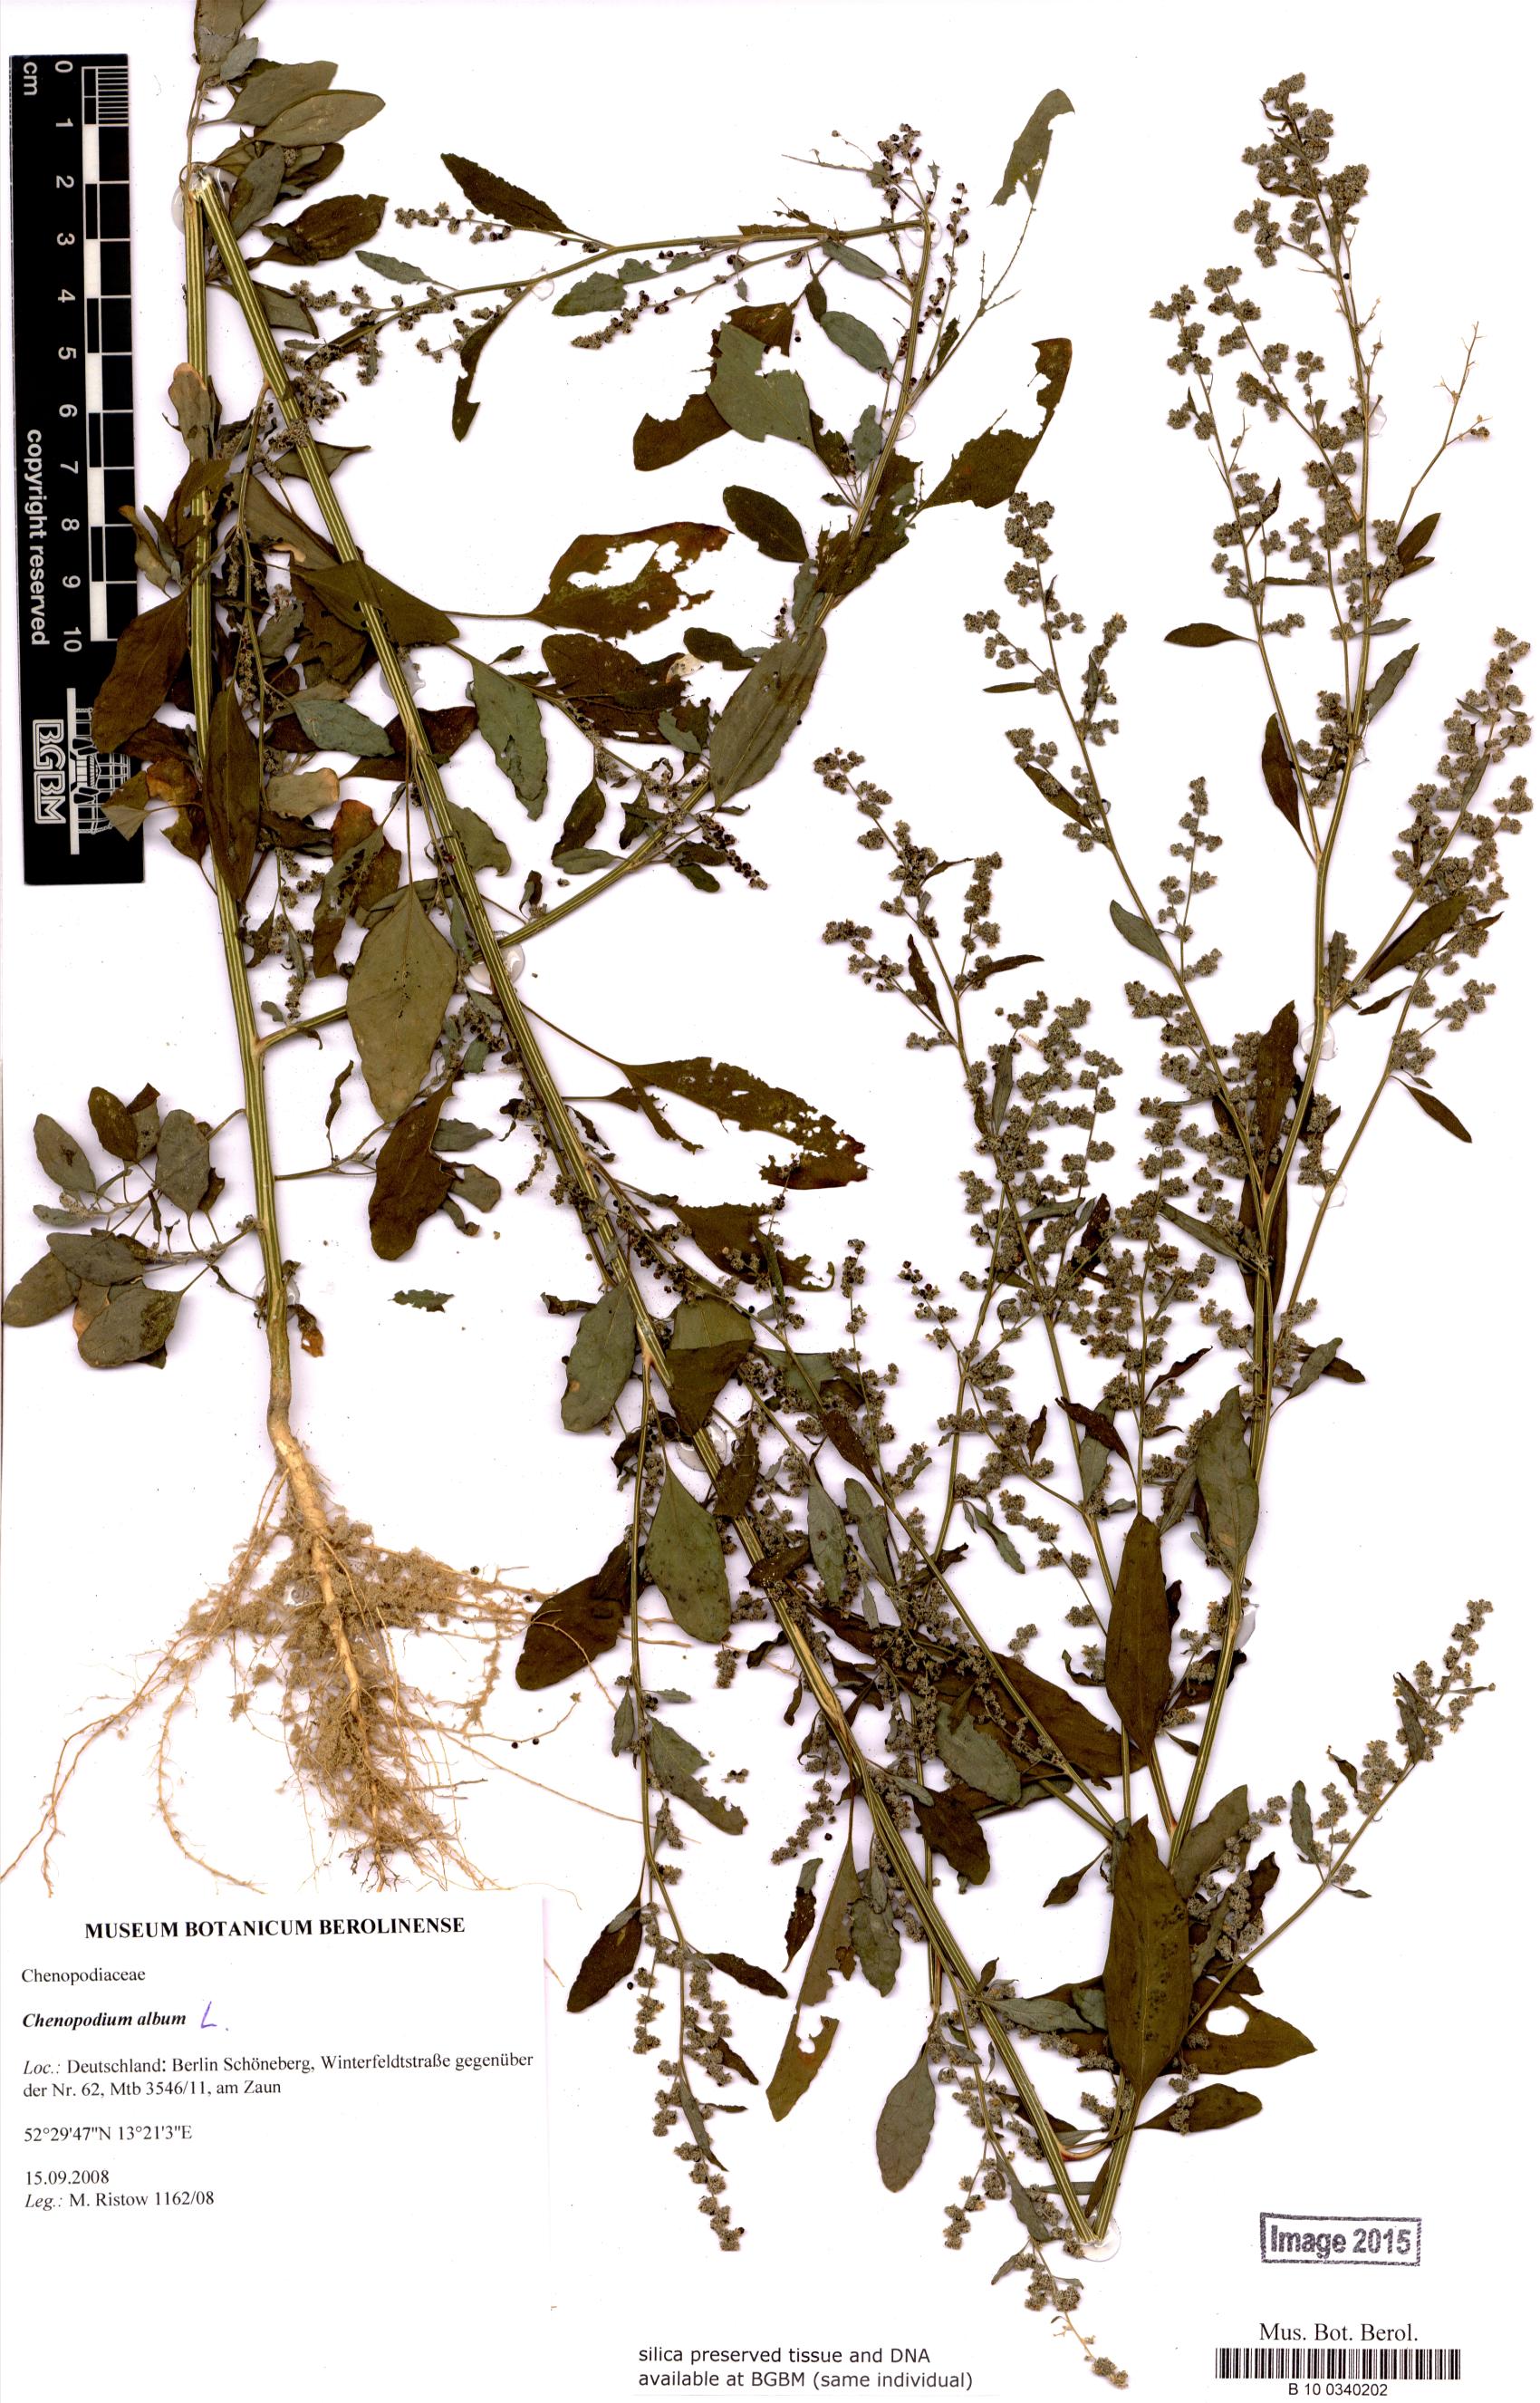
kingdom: Plantae
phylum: Tracheophyta
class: Magnoliopsida
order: Caryophyllales
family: Amaranthaceae
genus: Chenopodium
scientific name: Chenopodium album
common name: Fat-hen
